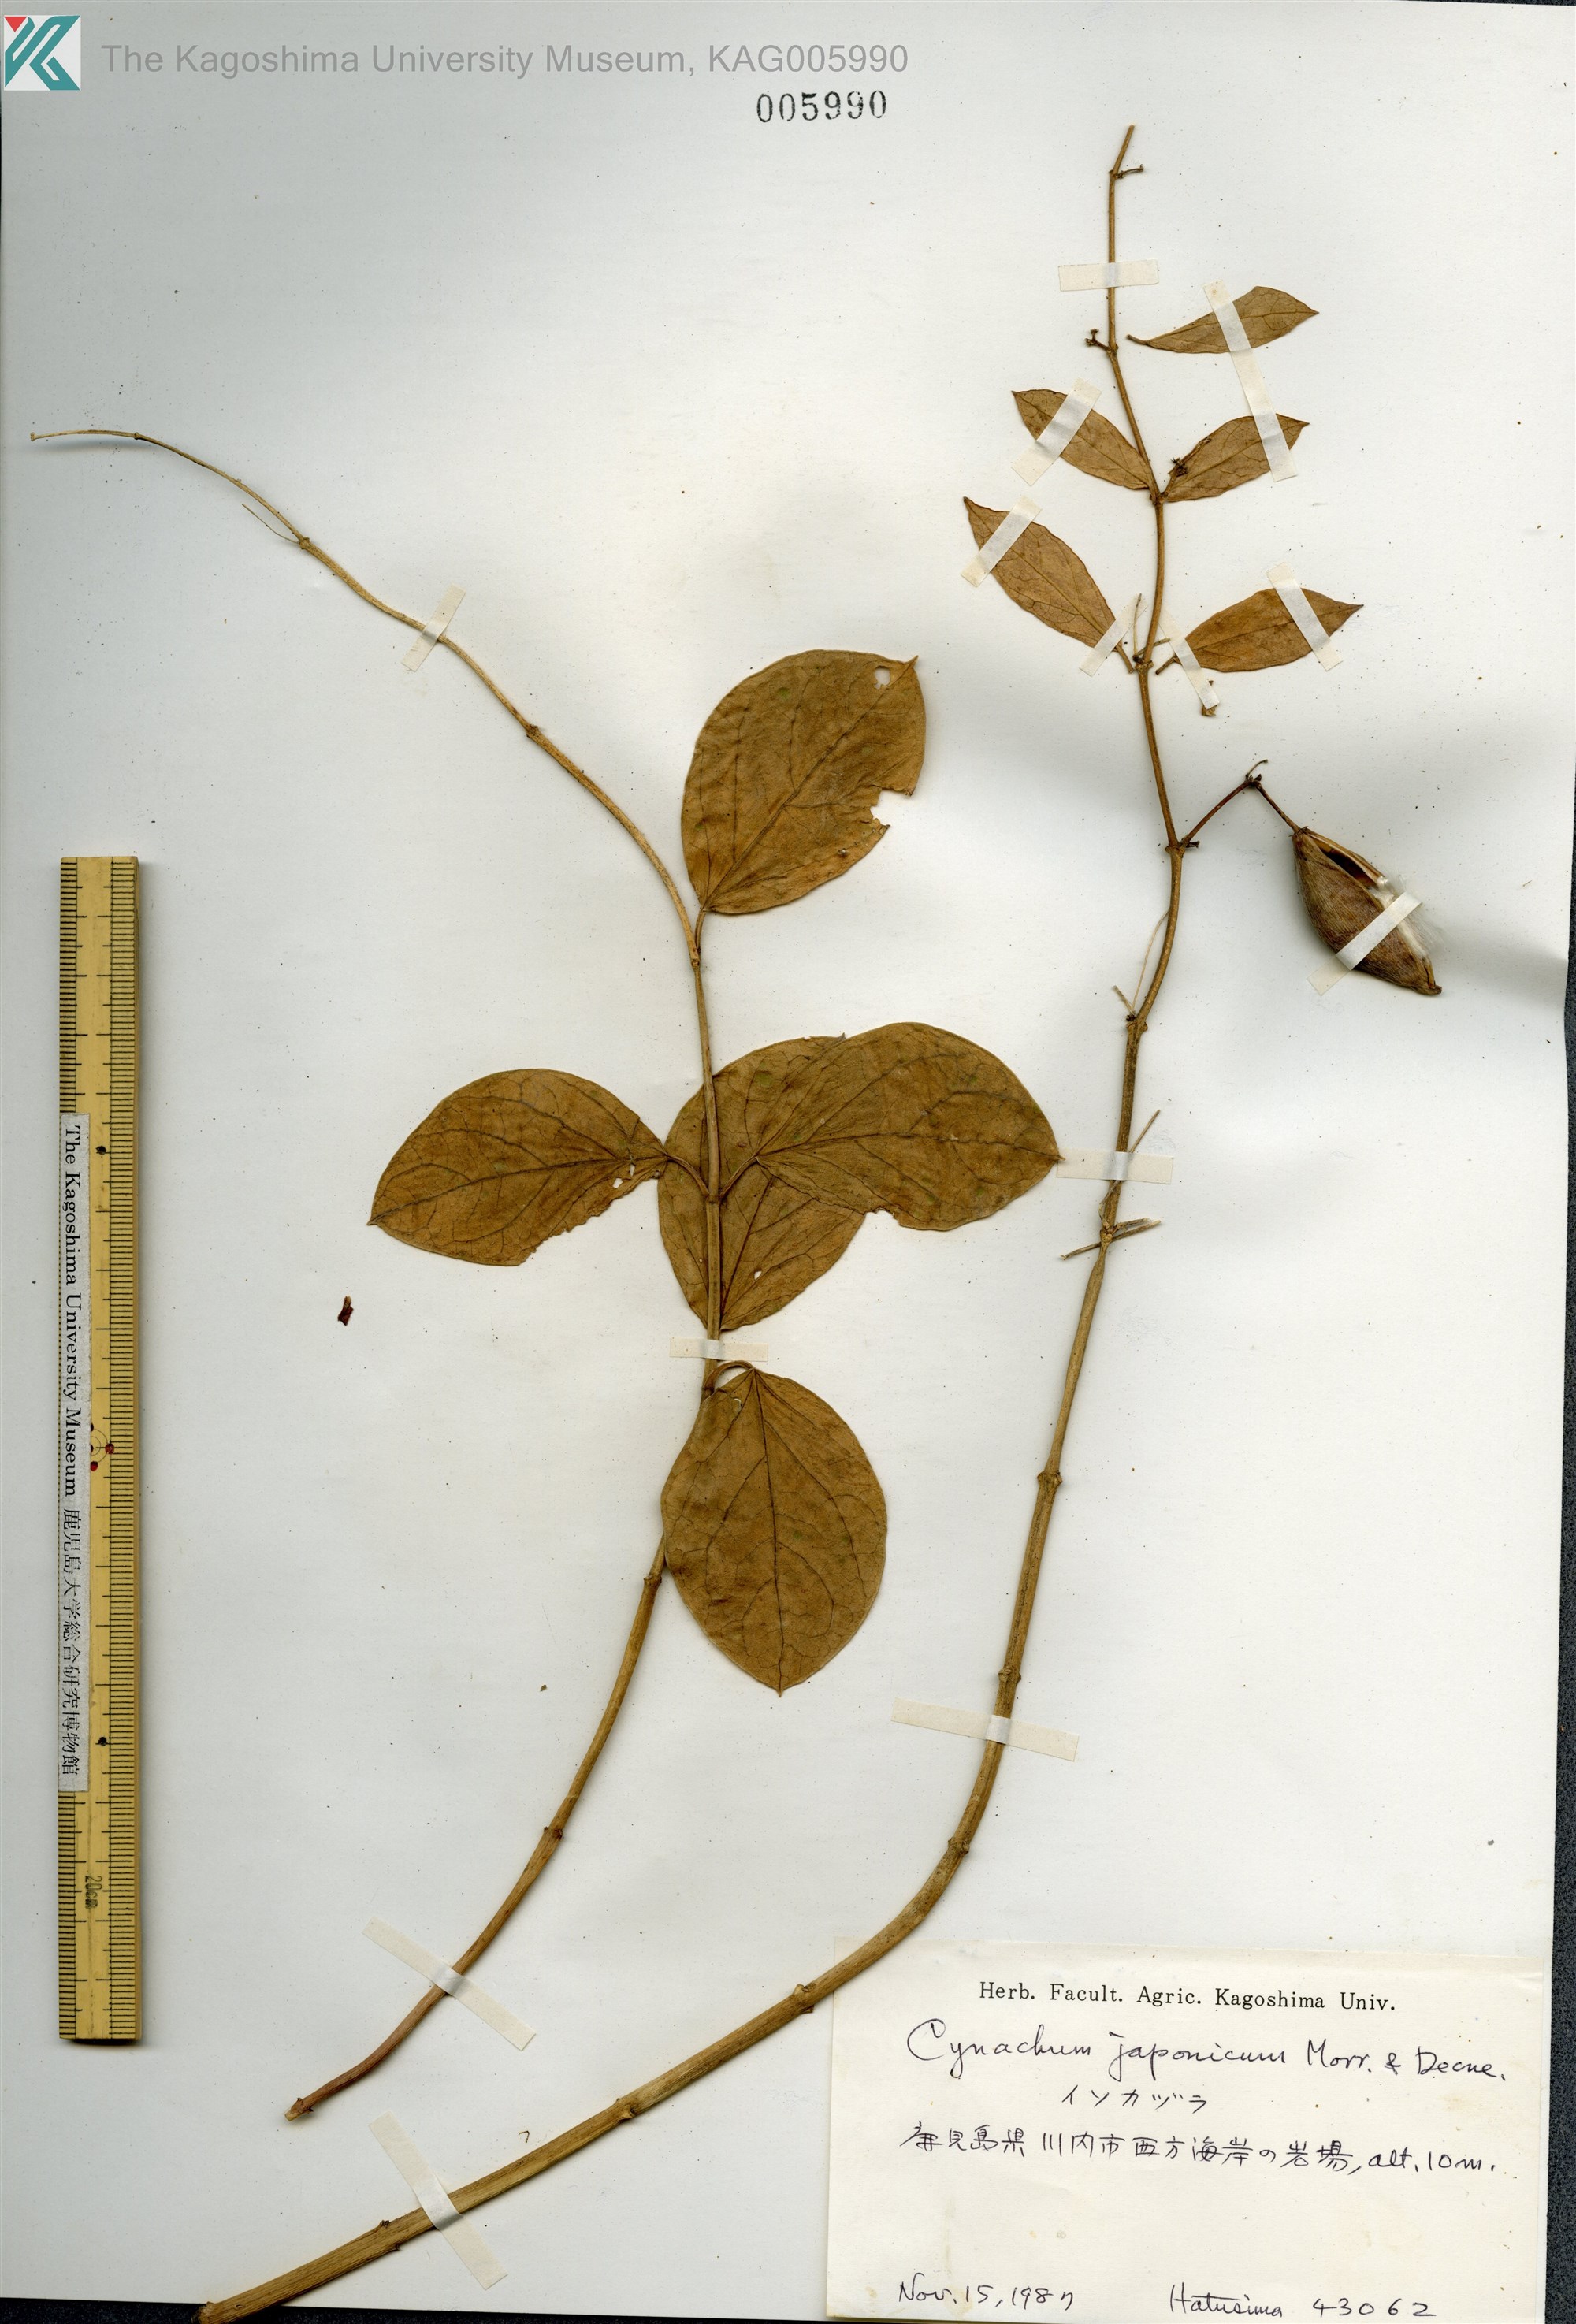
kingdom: Plantae
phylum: Tracheophyta
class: Magnoliopsida
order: Gentianales
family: Apocynaceae
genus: Vincetoxicum
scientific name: Vincetoxicum japonicum
